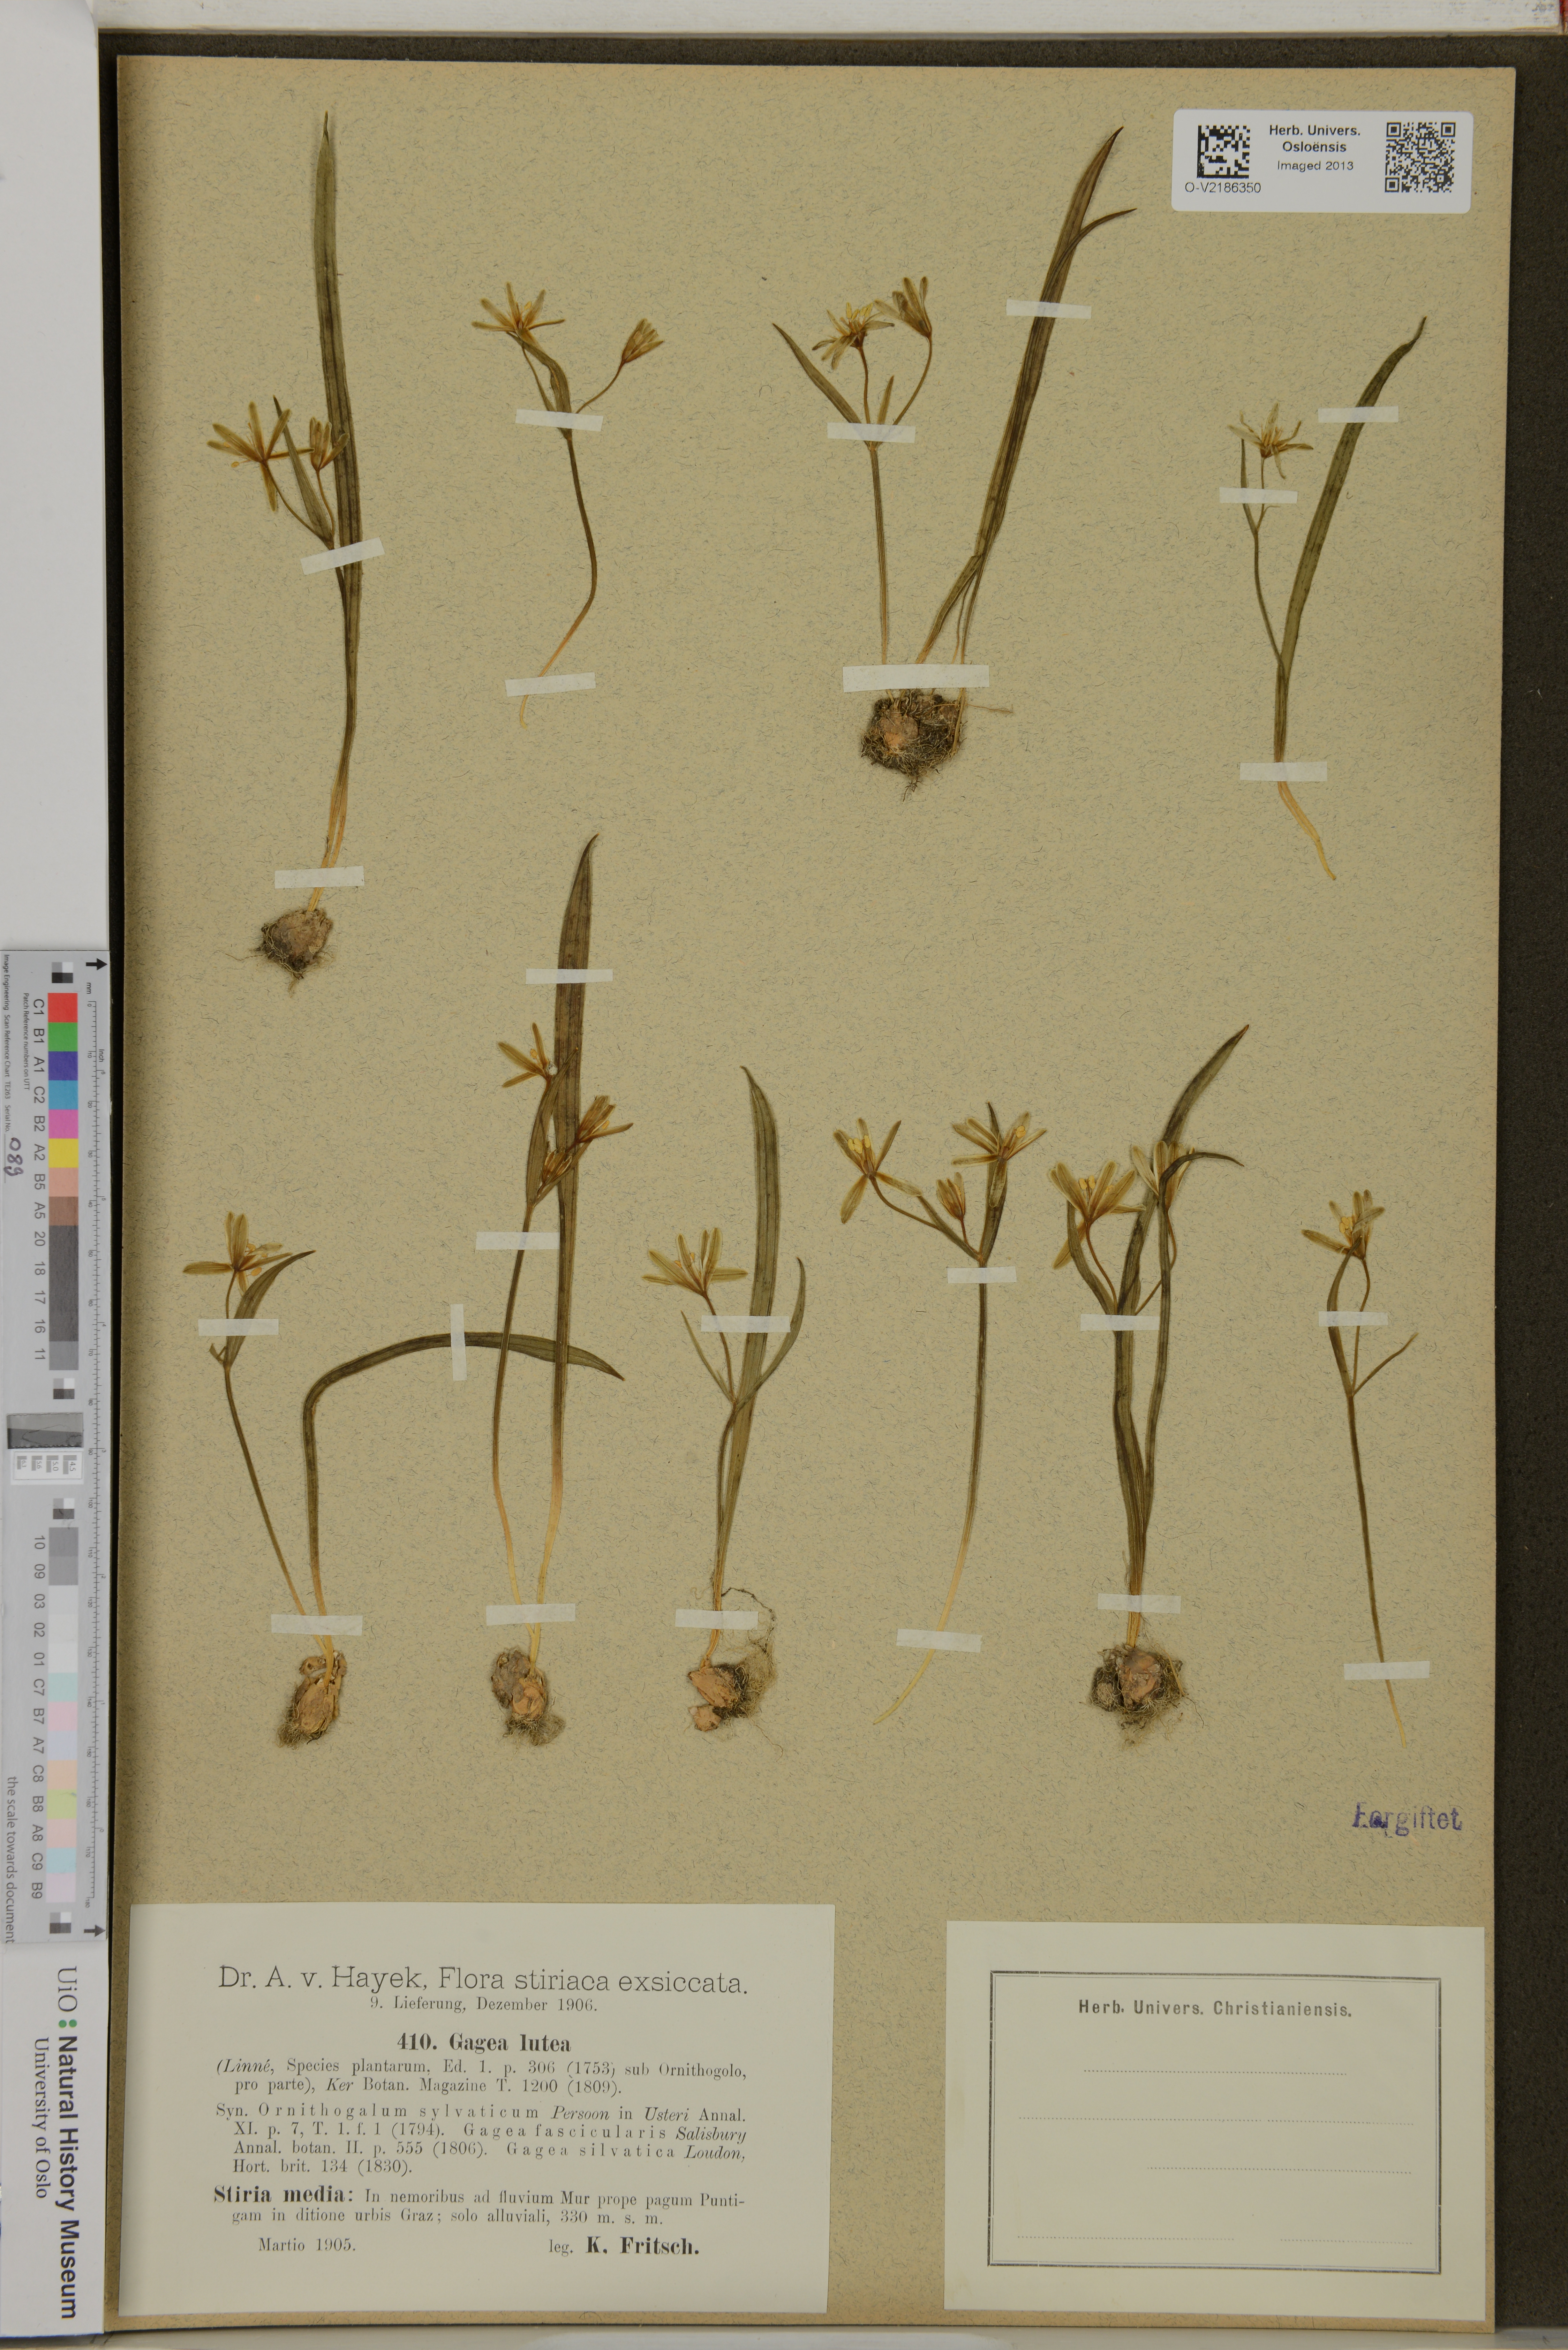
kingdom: Plantae
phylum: Tracheophyta
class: Liliopsida
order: Liliales
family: Liliaceae
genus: Gagea
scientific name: Gagea lutea
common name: Yellow star-of-bethlehem
